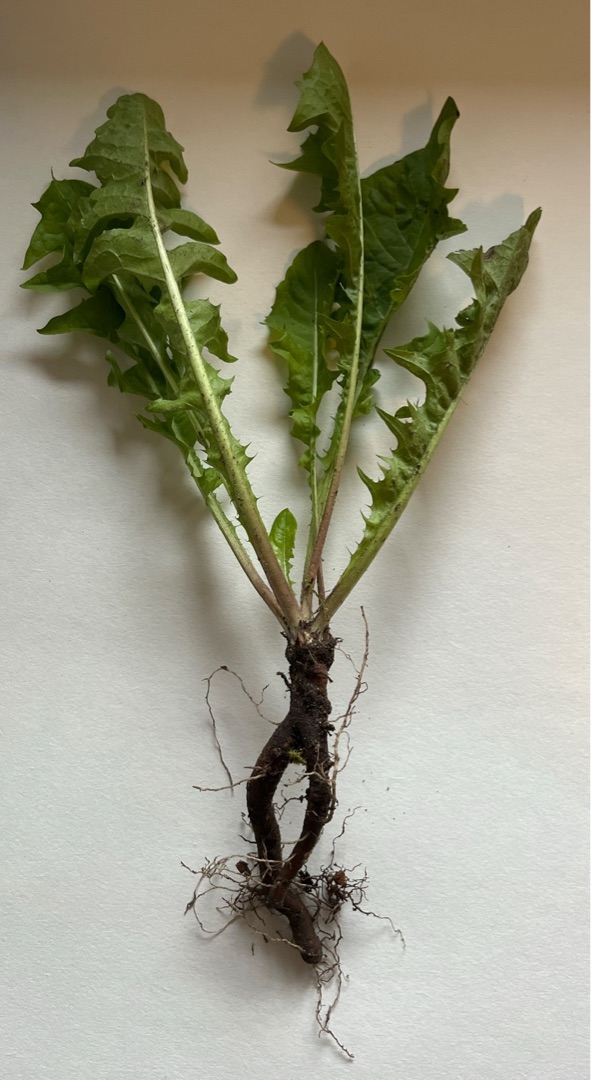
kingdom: Plantae
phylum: Tracheophyta
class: Magnoliopsida
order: Asterales
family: Asteraceae
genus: Taraxacum
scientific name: Taraxacum
